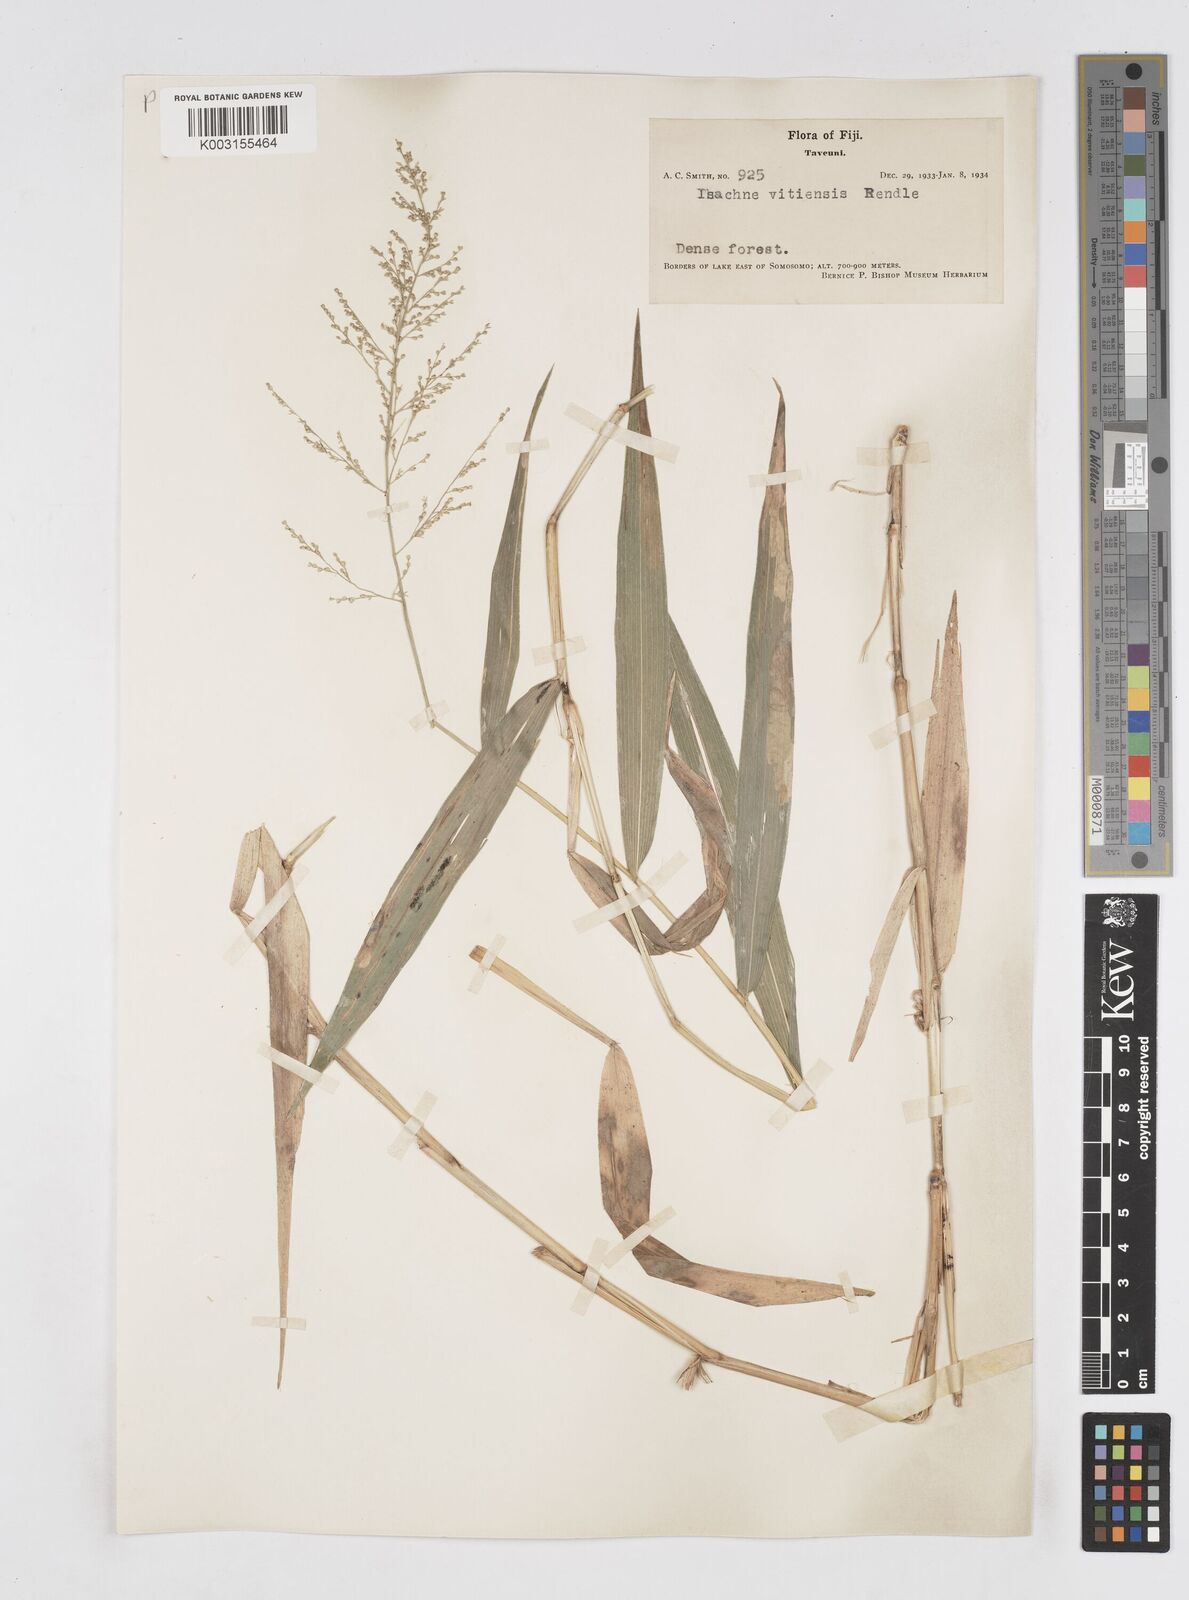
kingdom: Plantae
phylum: Tracheophyta
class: Liliopsida
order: Poales
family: Poaceae
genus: Isachne
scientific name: Isachne vitiensis
